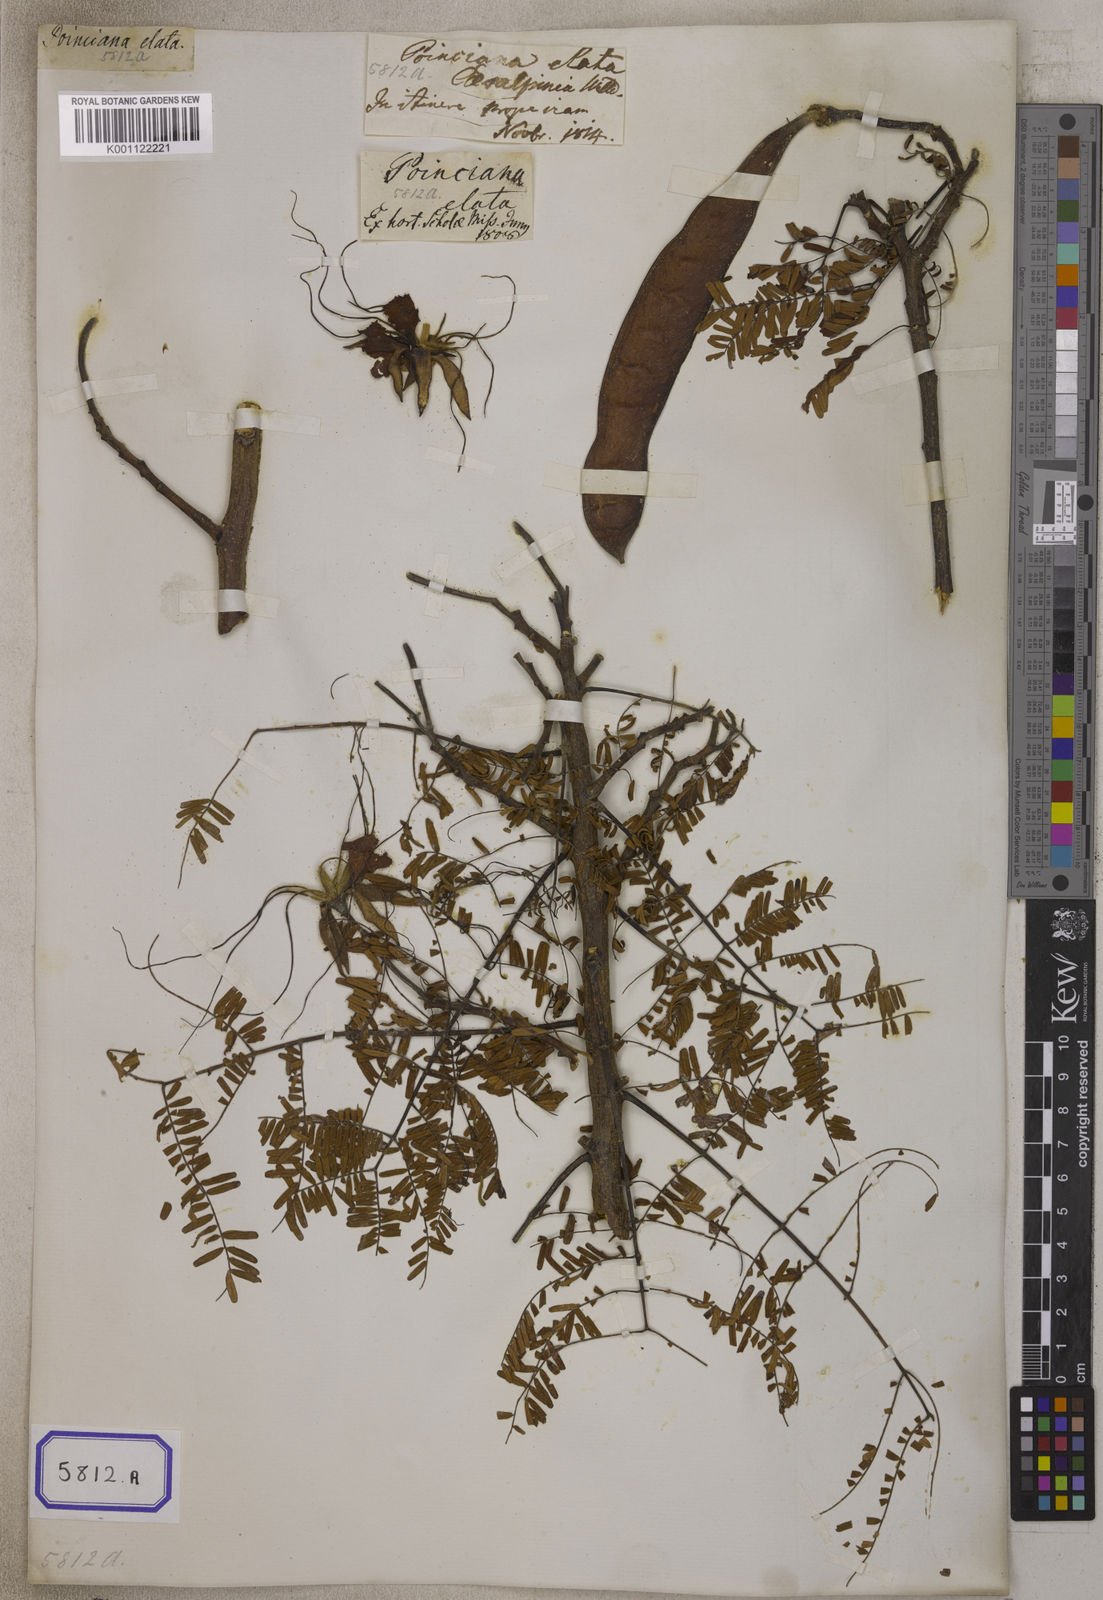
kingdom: Plantae
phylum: Tracheophyta
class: Magnoliopsida
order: Fabales
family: Fabaceae
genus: Delonix
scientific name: Delonix elata
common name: Creamy peacock flower
